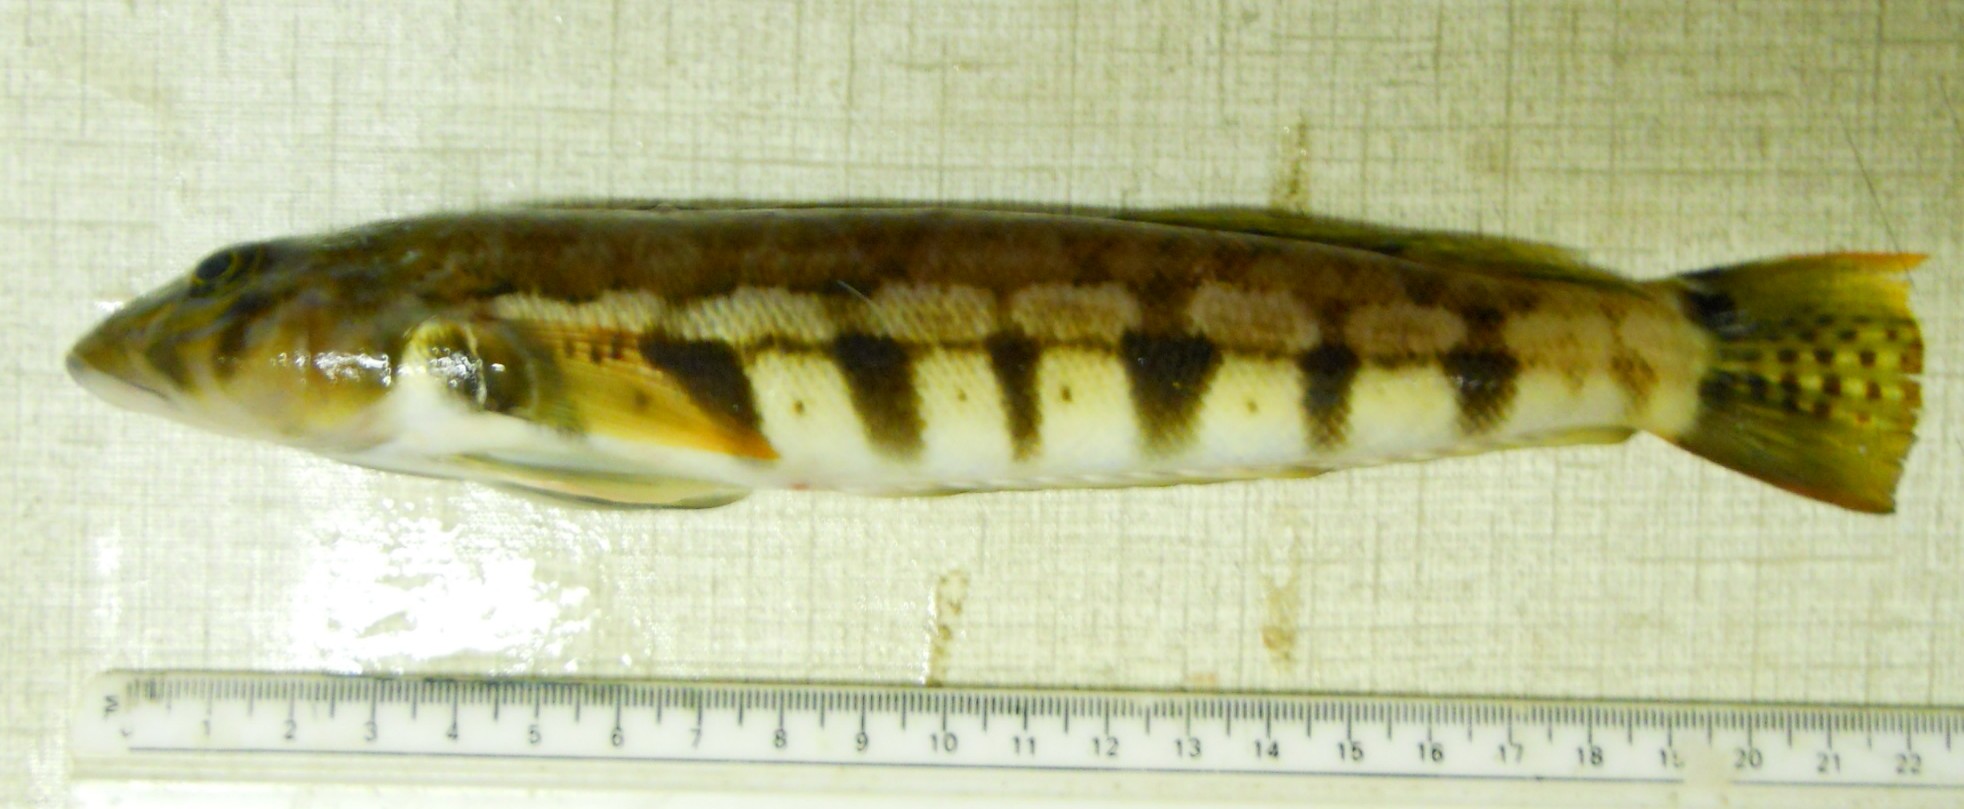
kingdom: Animalia
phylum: Chordata
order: Perciformes
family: Pinguipedidae
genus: Parapercis
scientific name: Parapercis robinsoni
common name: Smallscale sandsmelt
